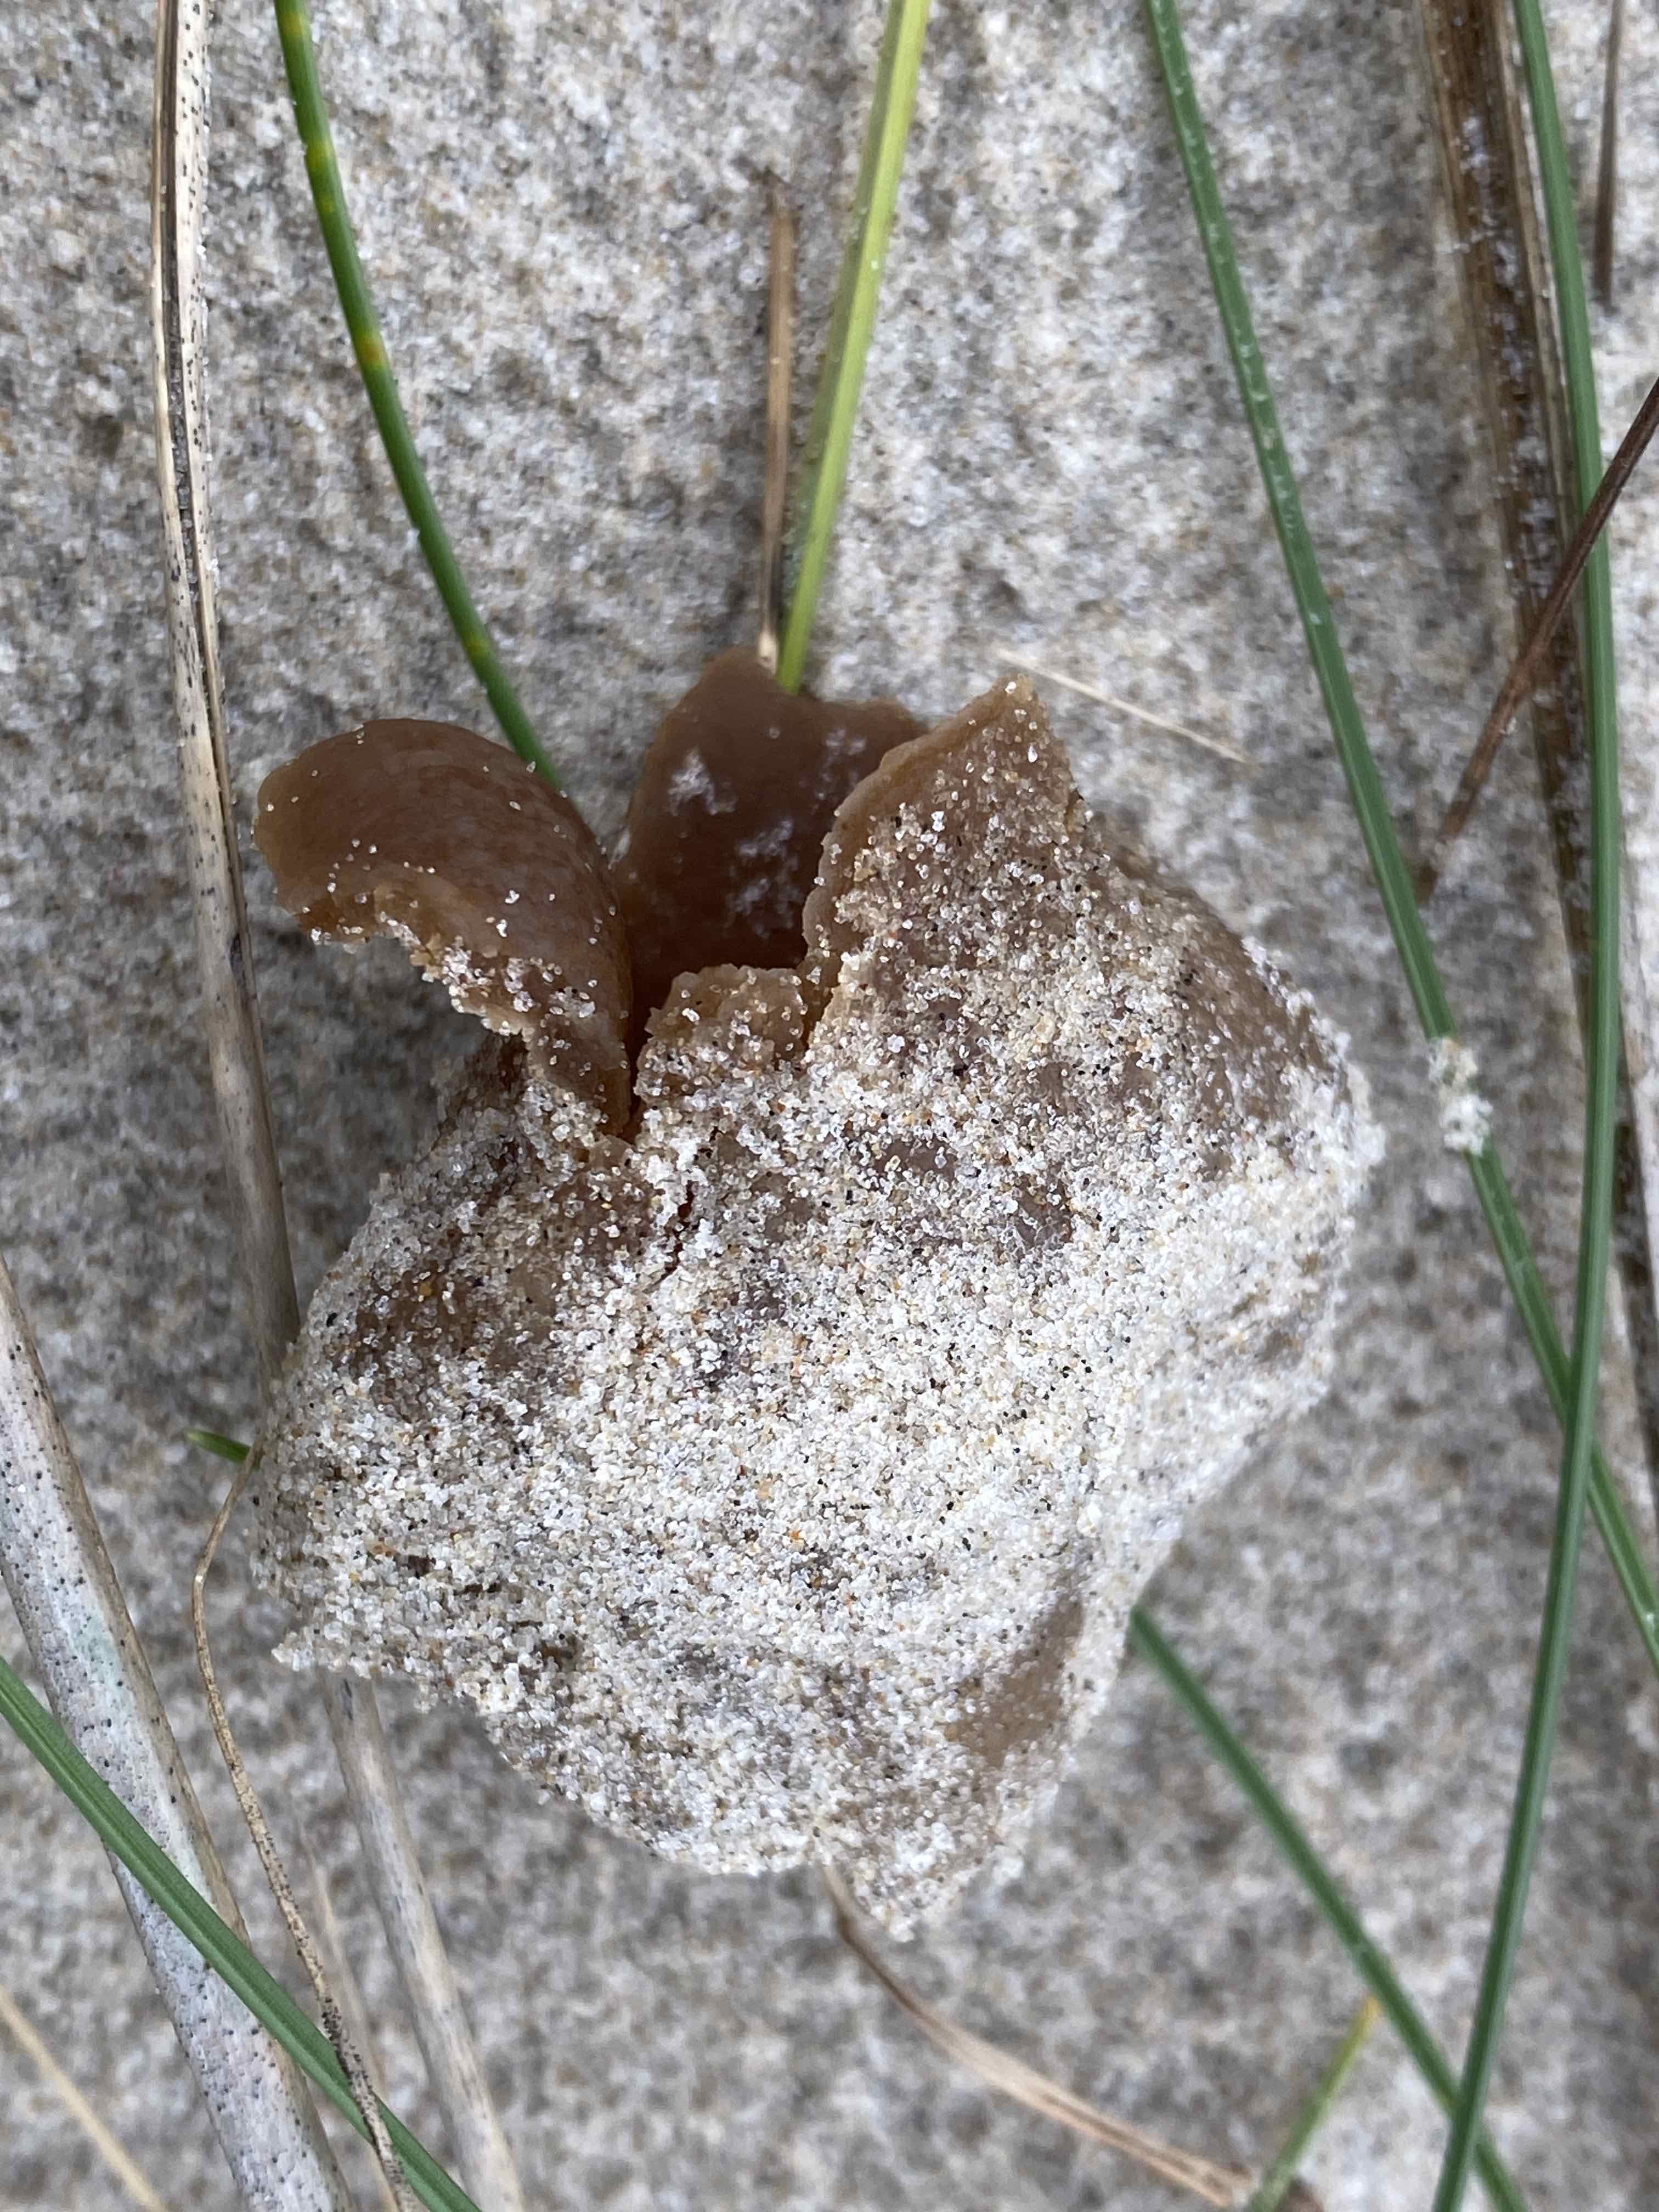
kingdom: Fungi
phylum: Ascomycota
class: Pezizomycetes
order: Pezizales
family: Pyronemataceae
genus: Lamprospora
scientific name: Lamprospora ammophila
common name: klit-bægersvamp
